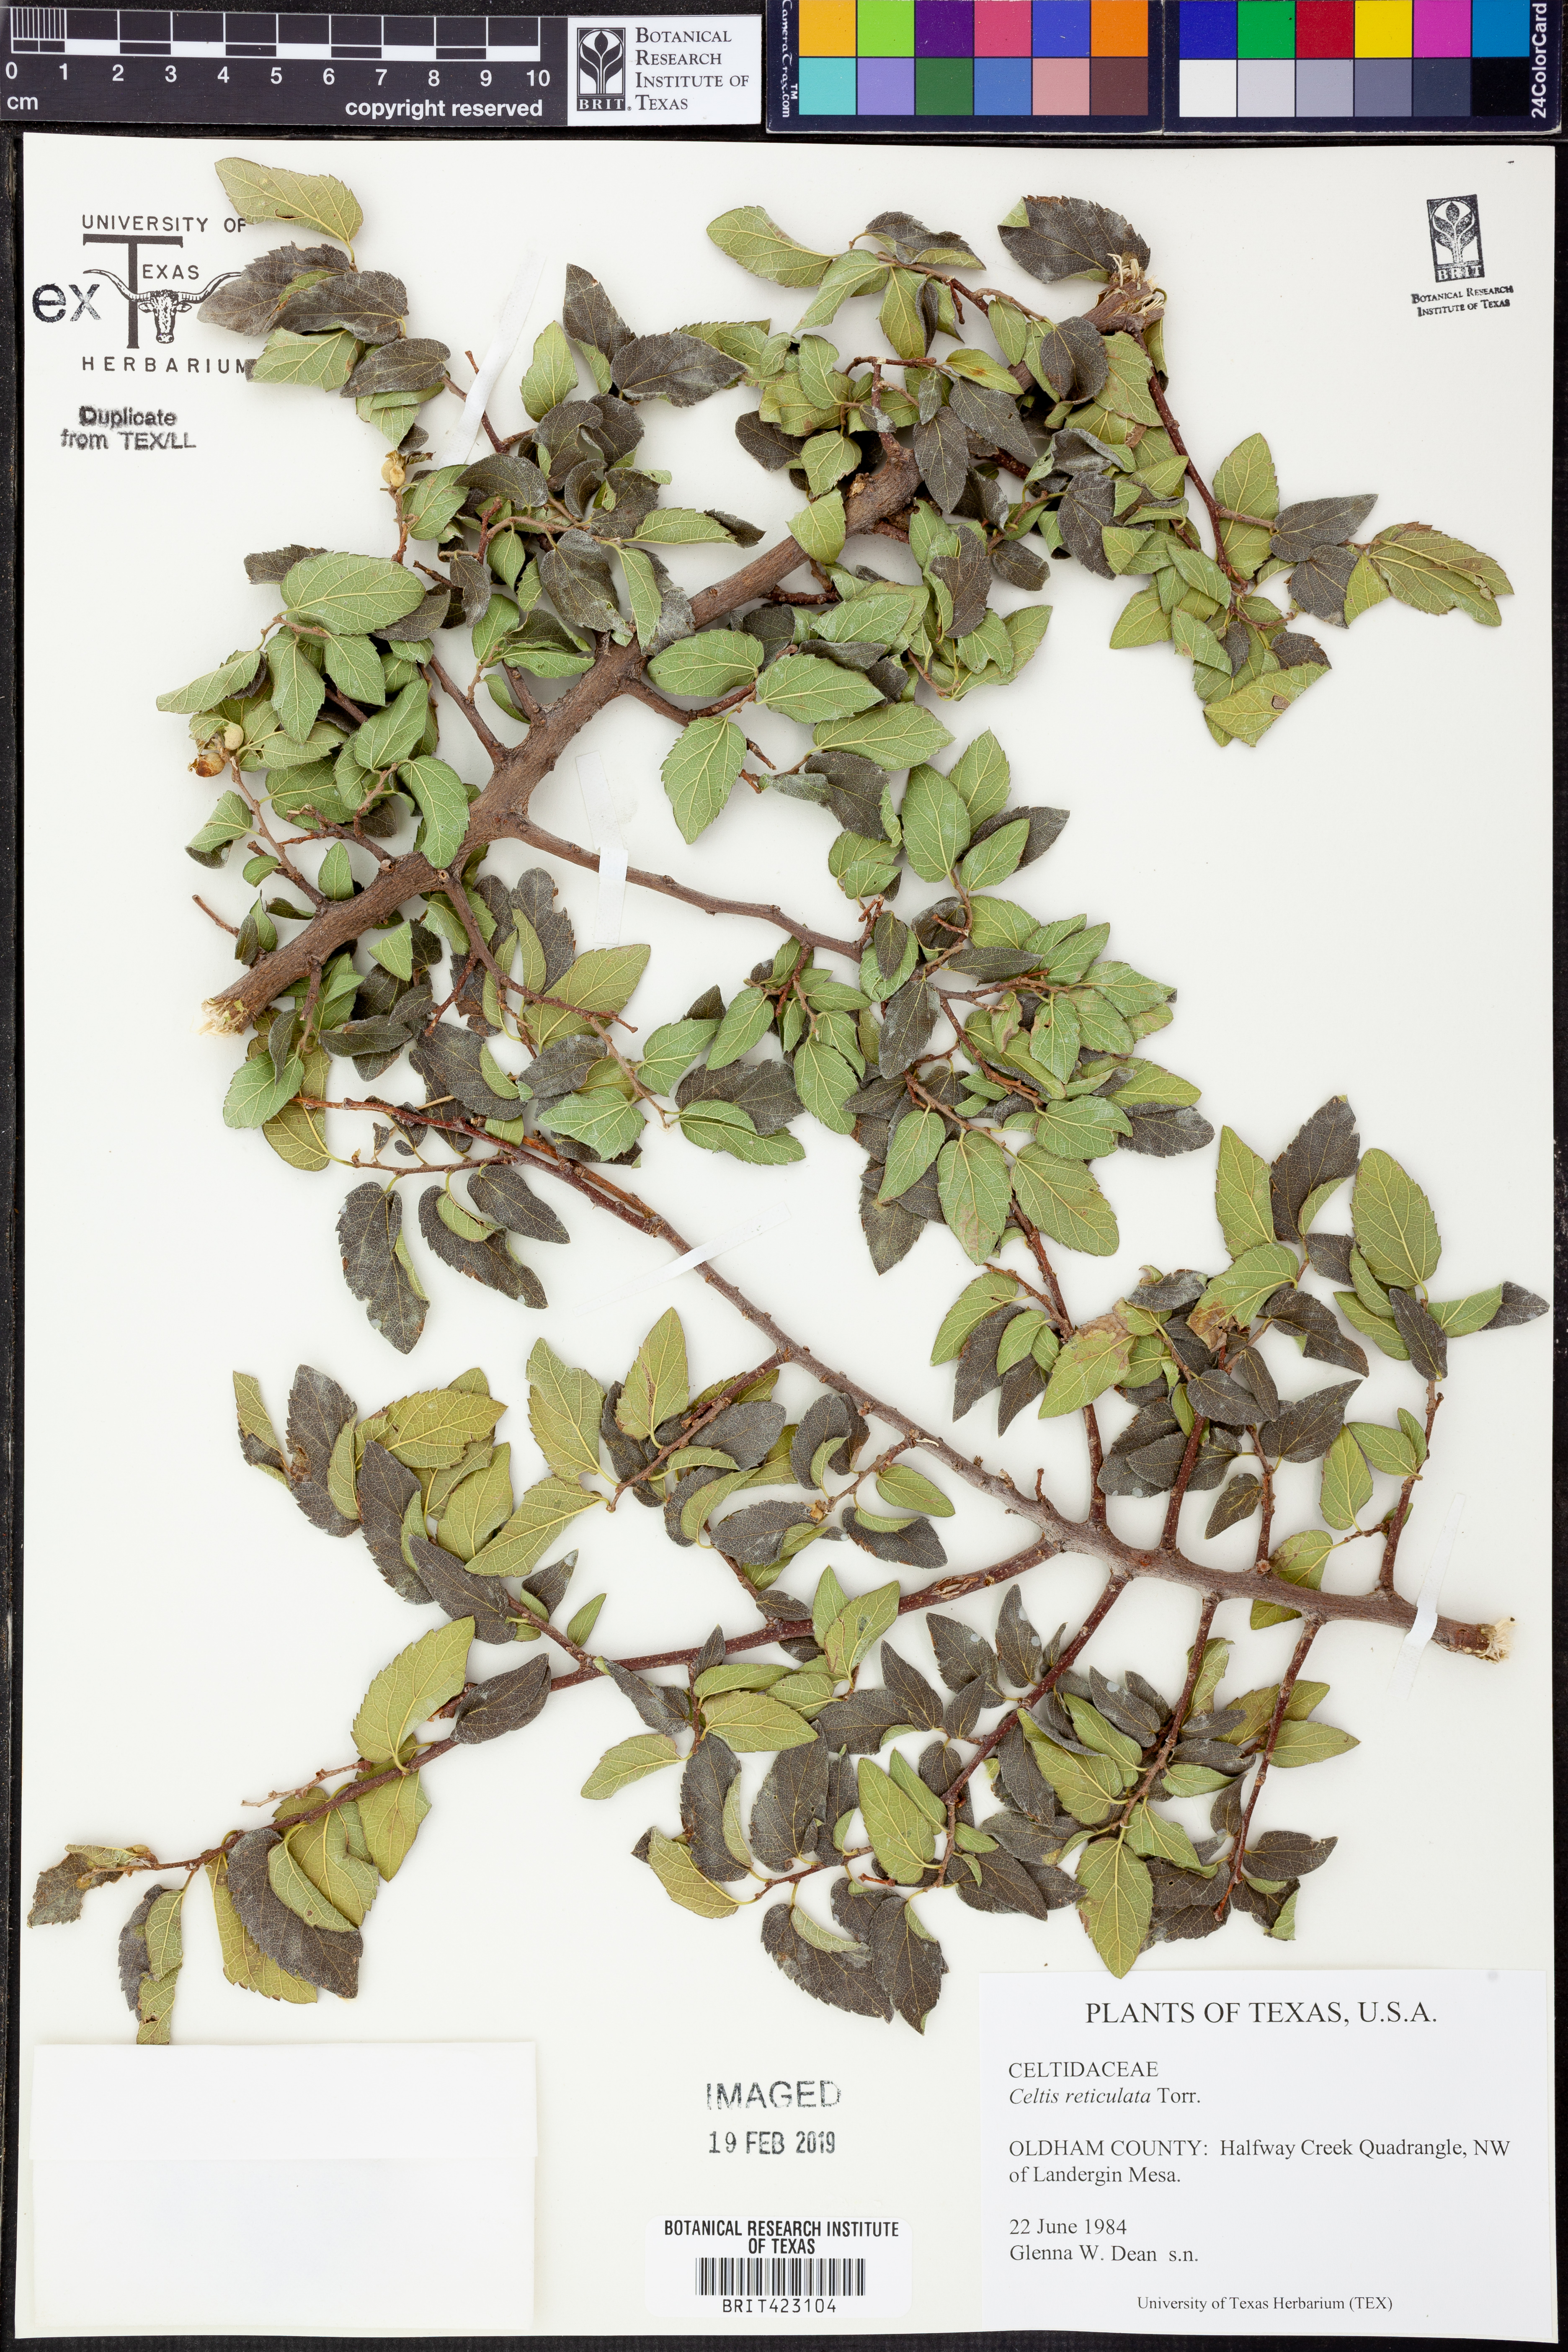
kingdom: Plantae
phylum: Tracheophyta
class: Magnoliopsida
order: Rosales
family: Cannabaceae
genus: Celtis
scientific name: Celtis reticulata
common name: Netleaf hackberry
